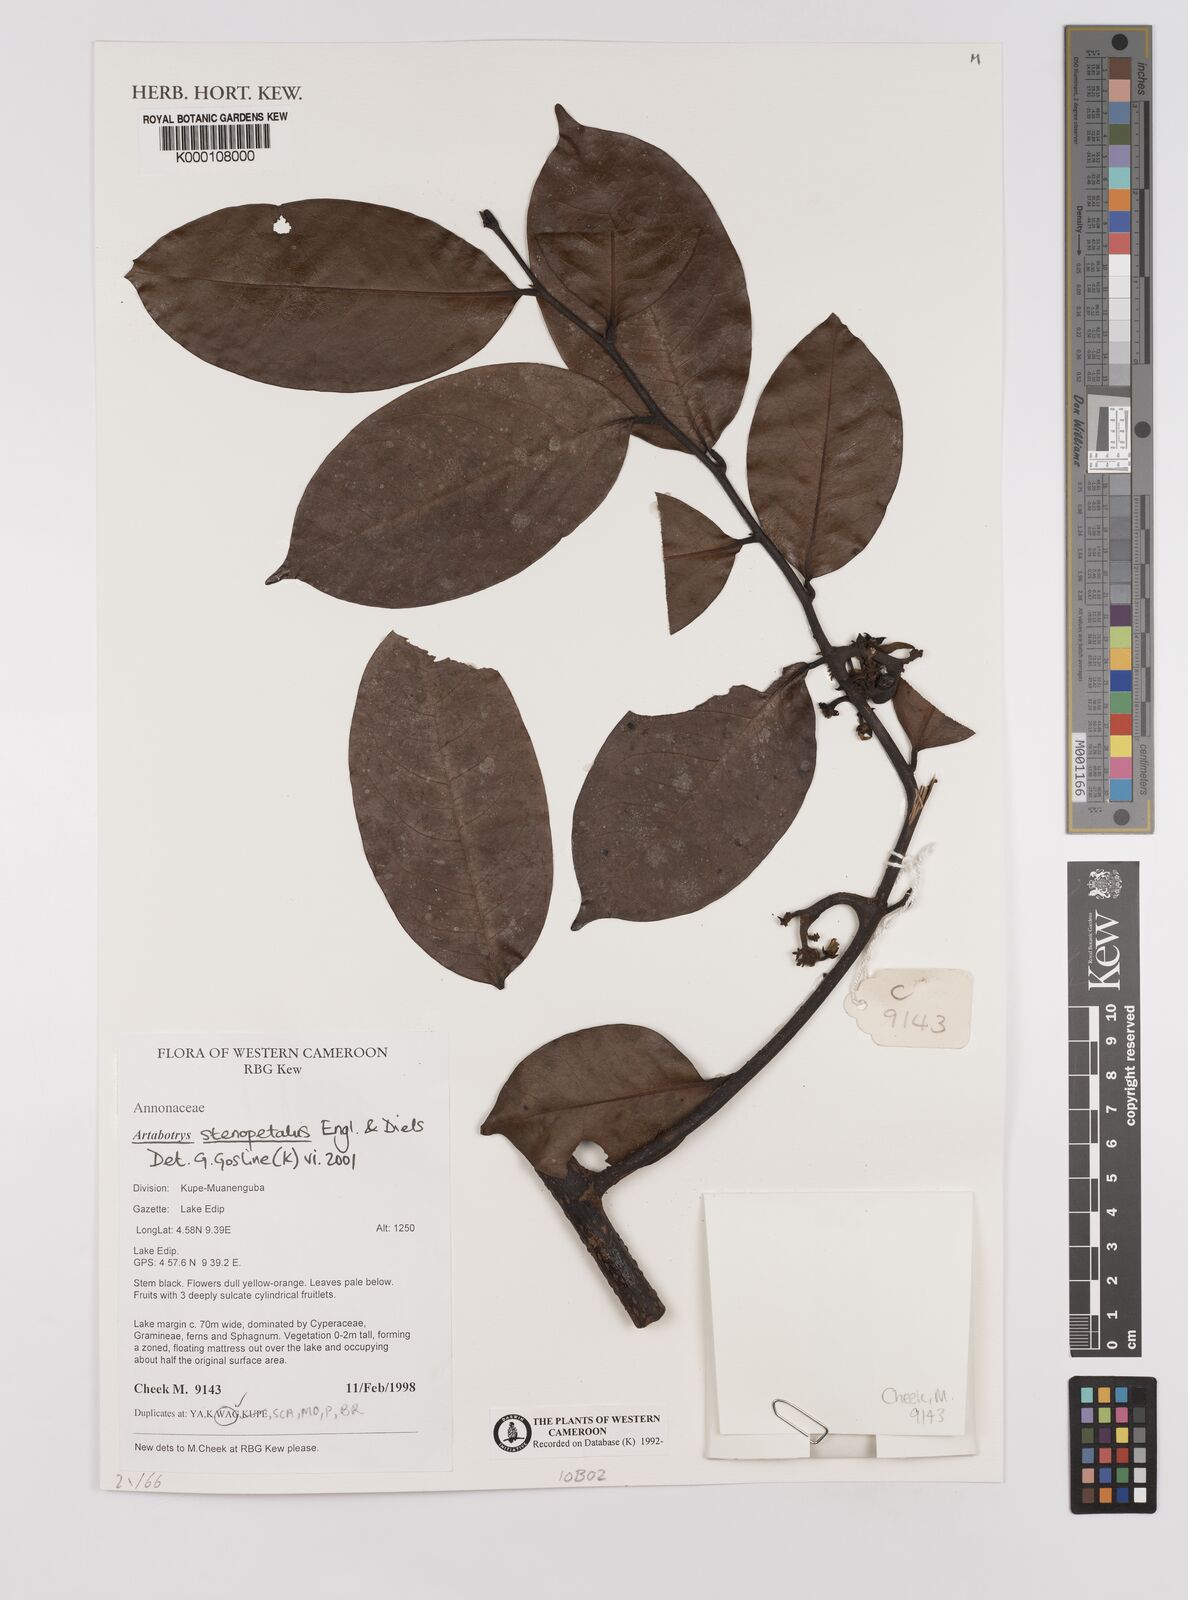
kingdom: Plantae
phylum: Tracheophyta
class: Magnoliopsida
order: Magnoliales
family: Annonaceae
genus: Artabotrys
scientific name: Artabotrys stenopetalus
